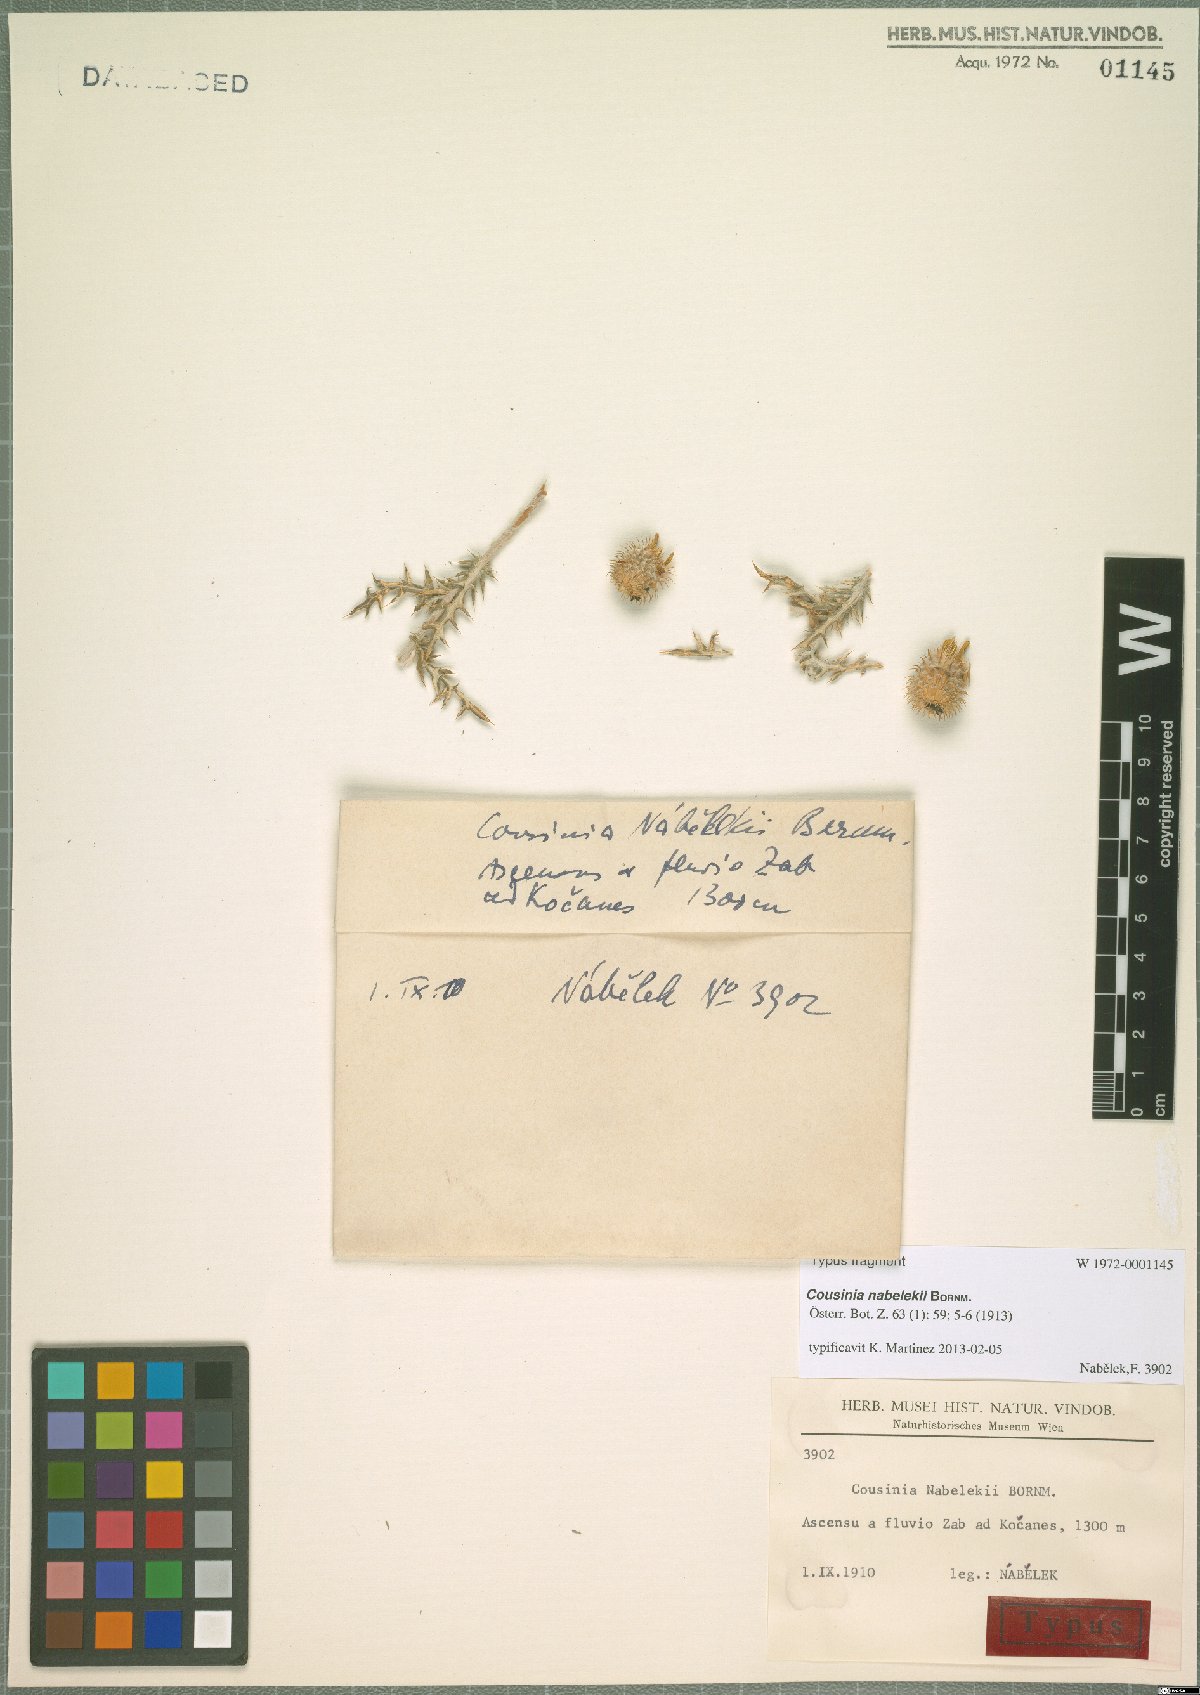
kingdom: Plantae
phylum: Tracheophyta
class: Magnoliopsida
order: Asterales
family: Asteraceae
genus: Cousinia
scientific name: Cousinia nabelekii
